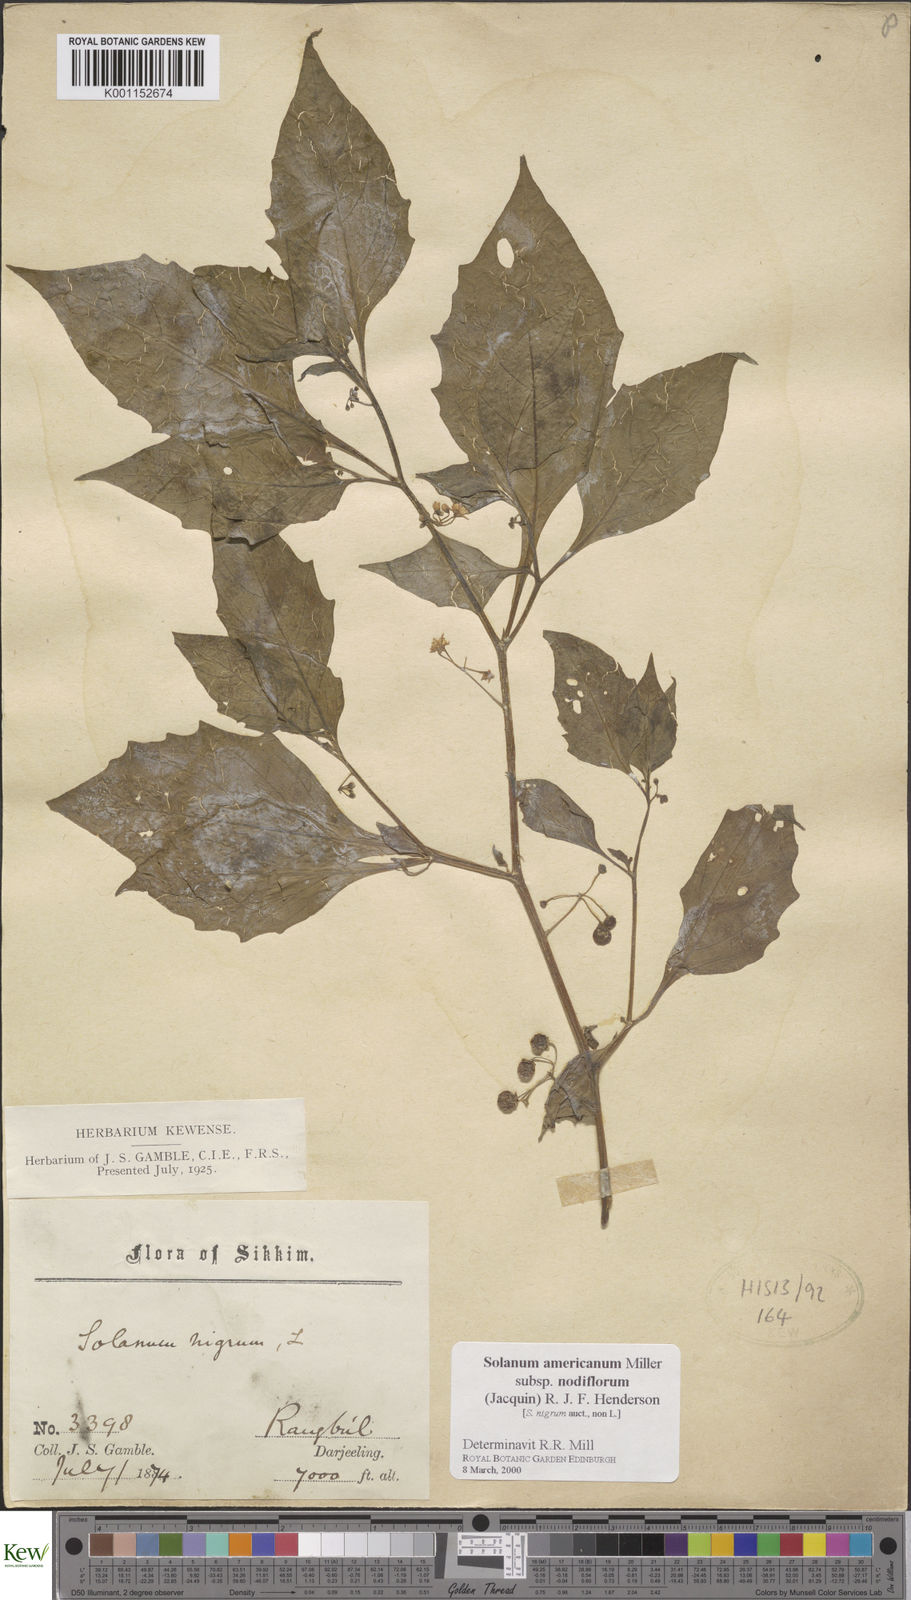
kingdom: Plantae
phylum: Tracheophyta
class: Magnoliopsida
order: Solanales
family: Solanaceae
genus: Solanum
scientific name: Solanum nigrum
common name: Black nightshade
